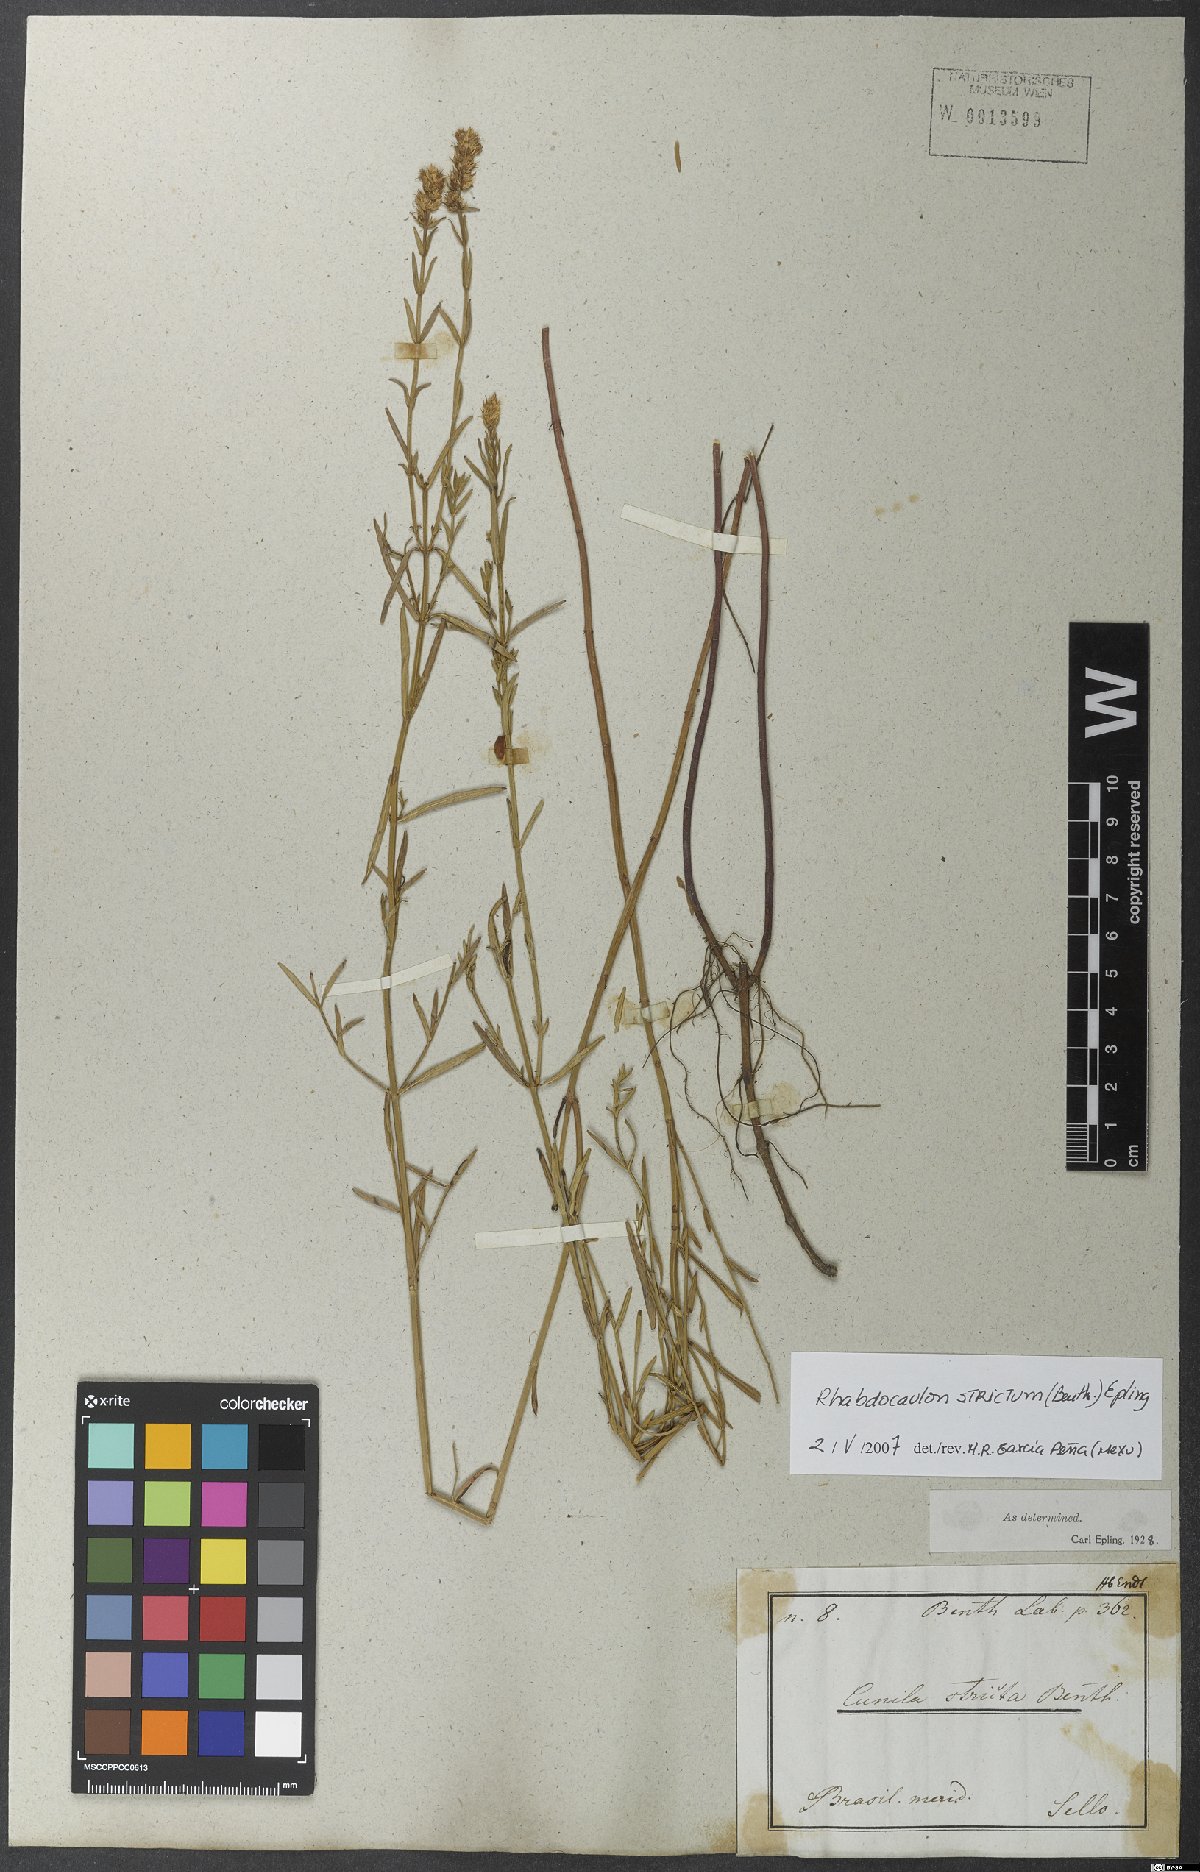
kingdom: Plantae
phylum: Tracheophyta
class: Magnoliopsida
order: Lamiales
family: Lamiaceae
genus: Rhabdocaulon
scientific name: Rhabdocaulon strictum
